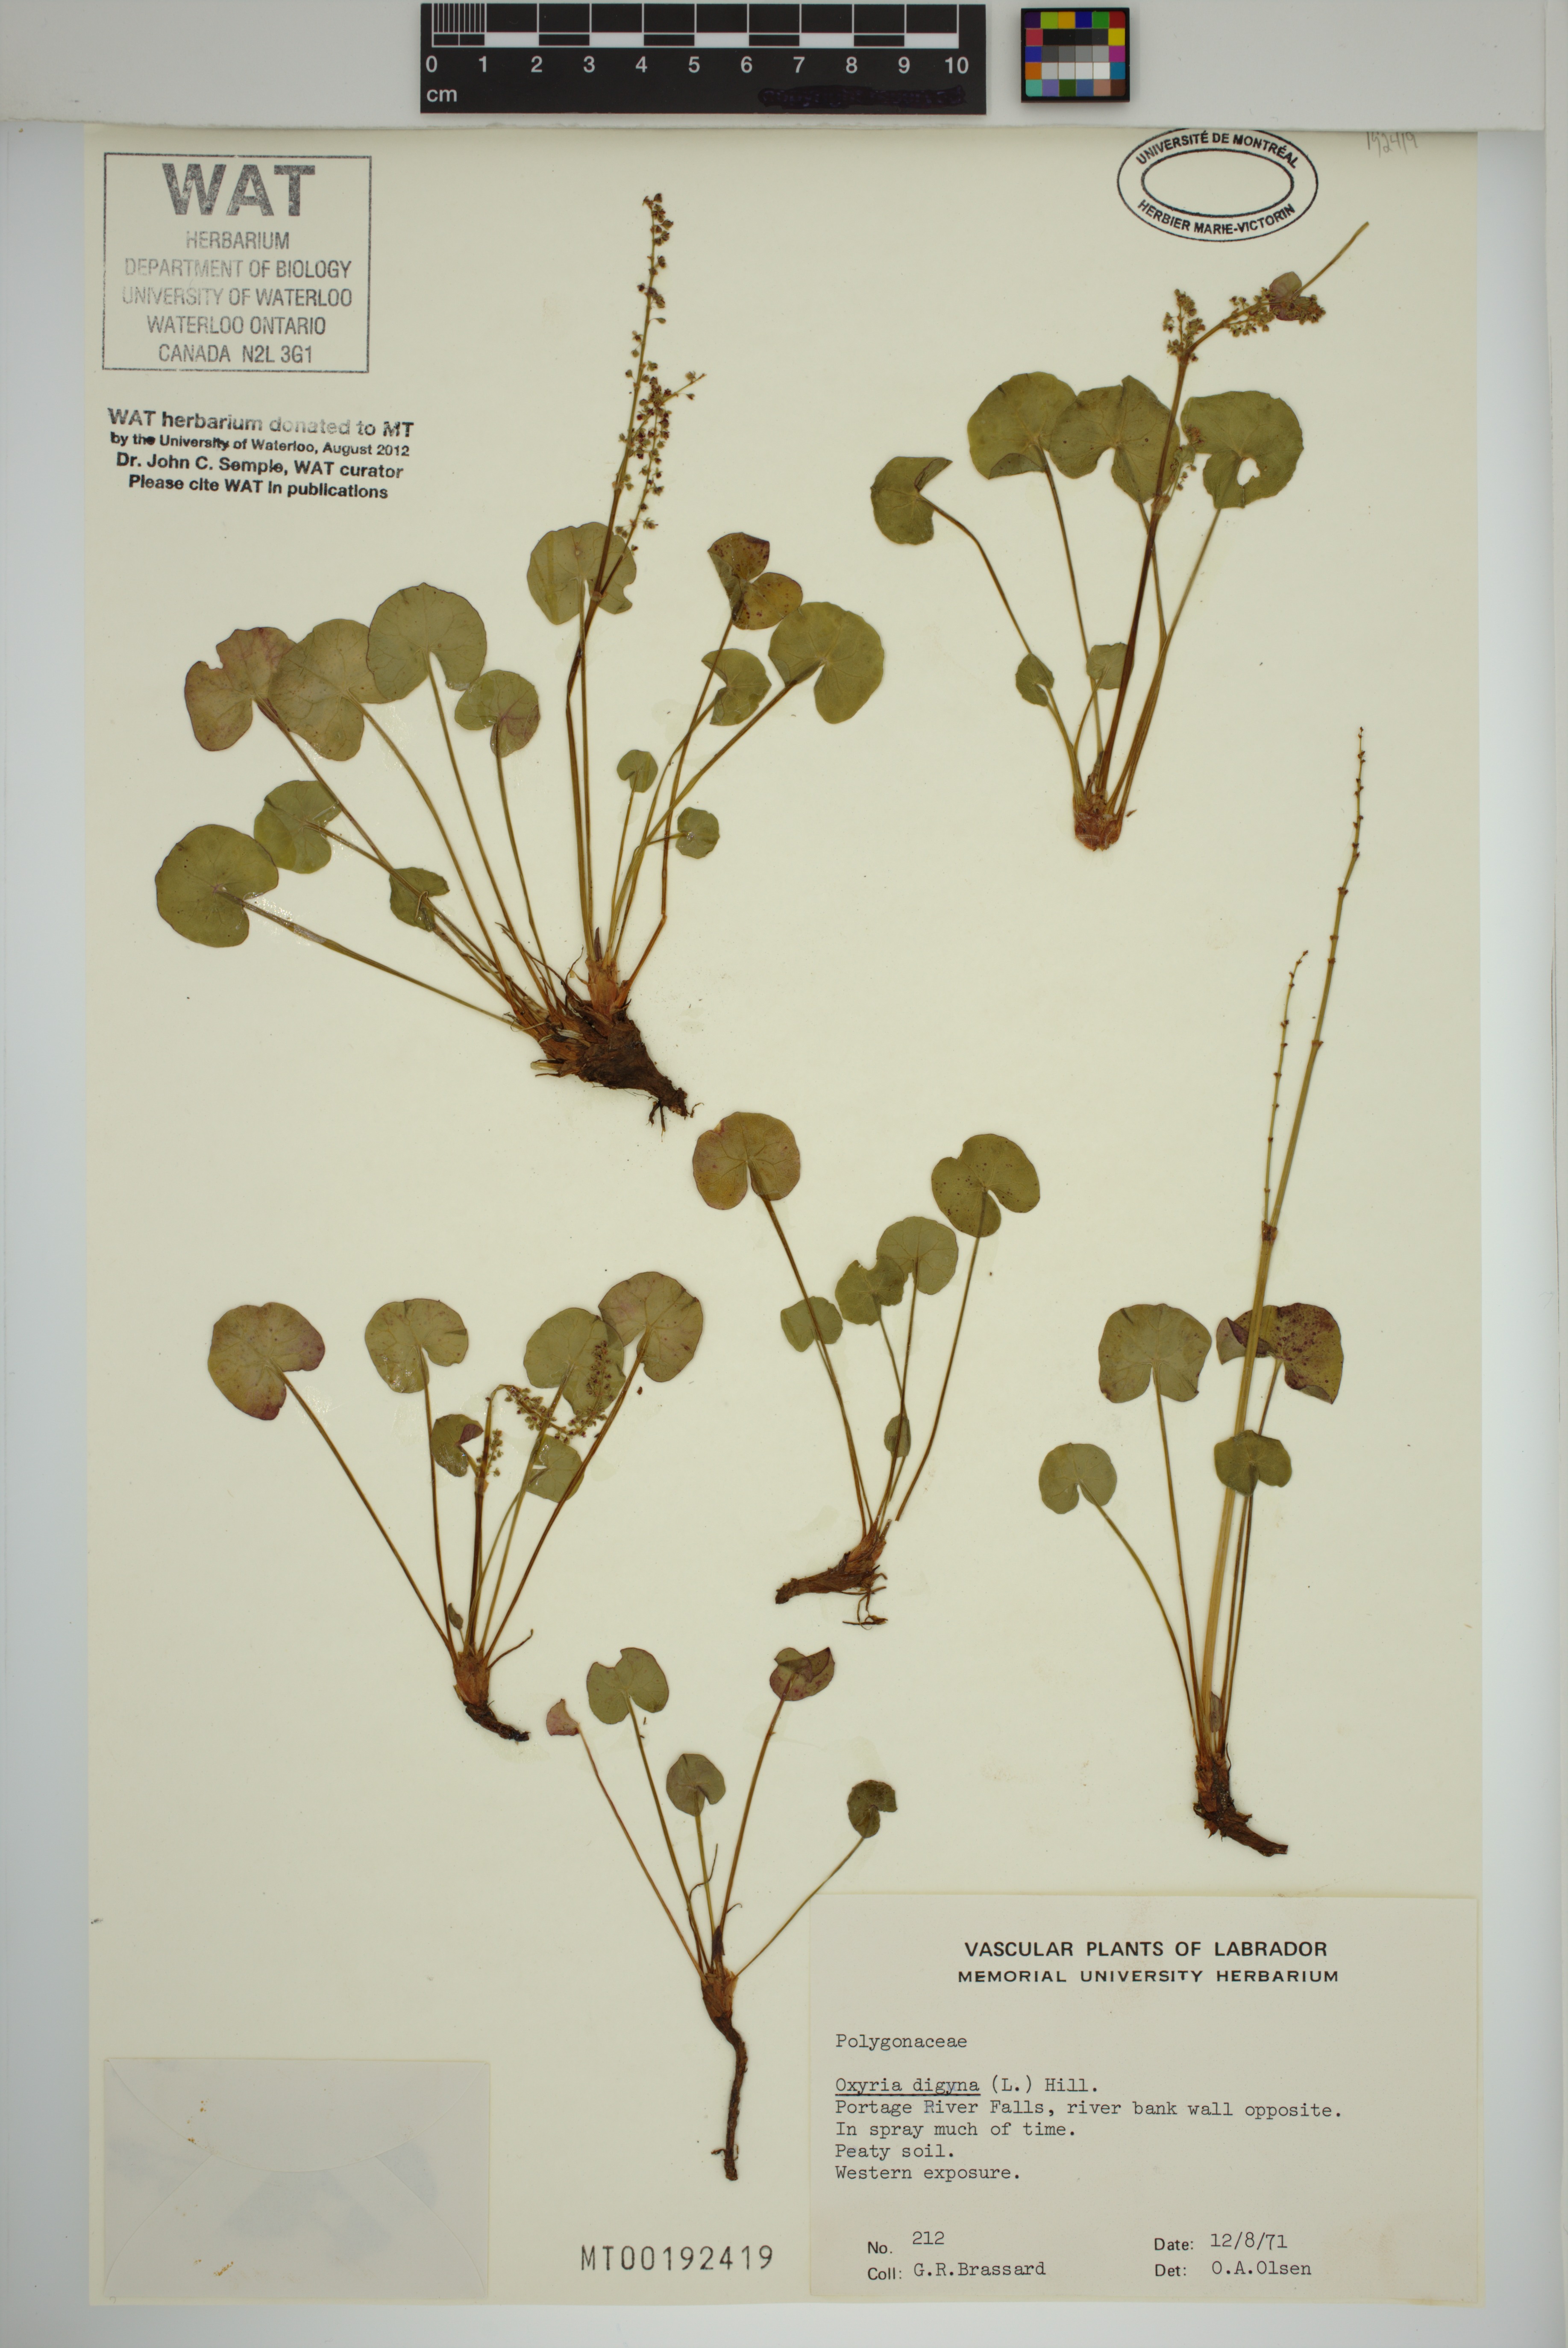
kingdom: Plantae
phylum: Tracheophyta
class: Magnoliopsida
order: Caryophyllales
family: Polygonaceae
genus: Oxyria
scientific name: Oxyria digyna
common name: Alpine mountain-sorrel
